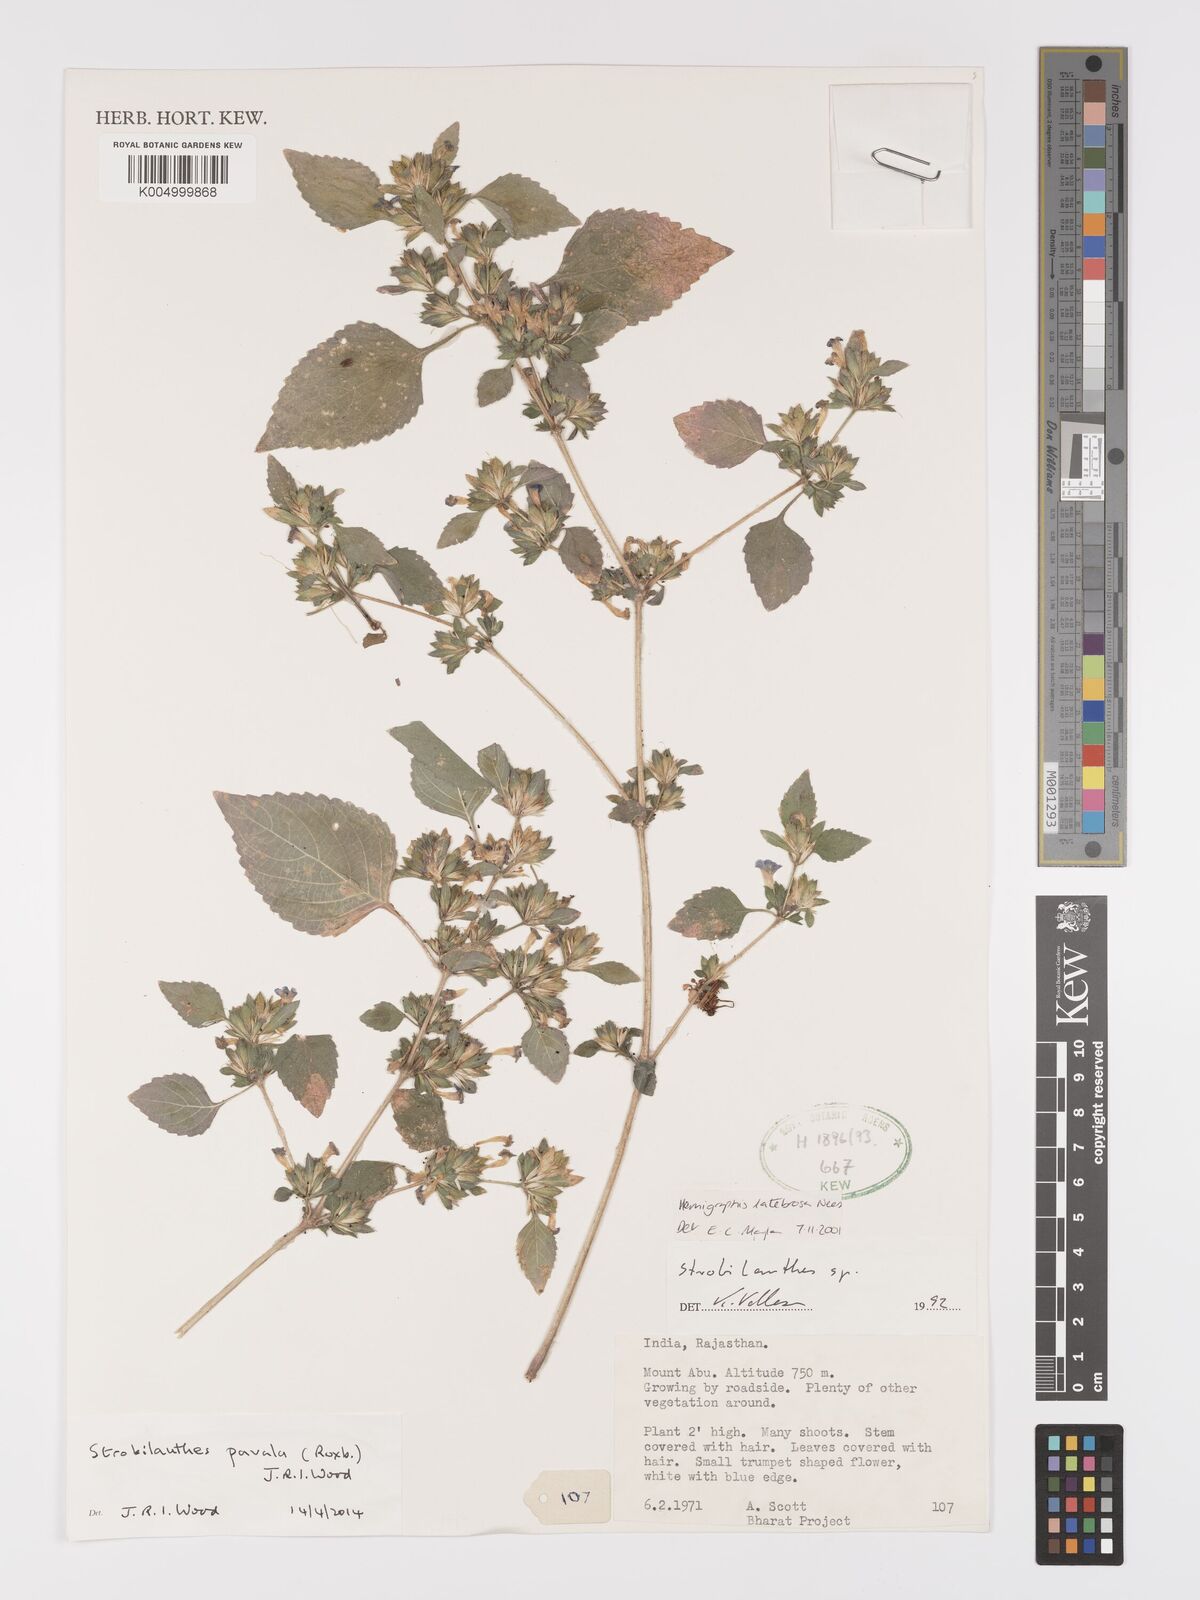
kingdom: Plantae
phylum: Tracheophyta
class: Magnoliopsida
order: Lamiales
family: Acanthaceae
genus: Strobilanthes
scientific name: Strobilanthes pavala
